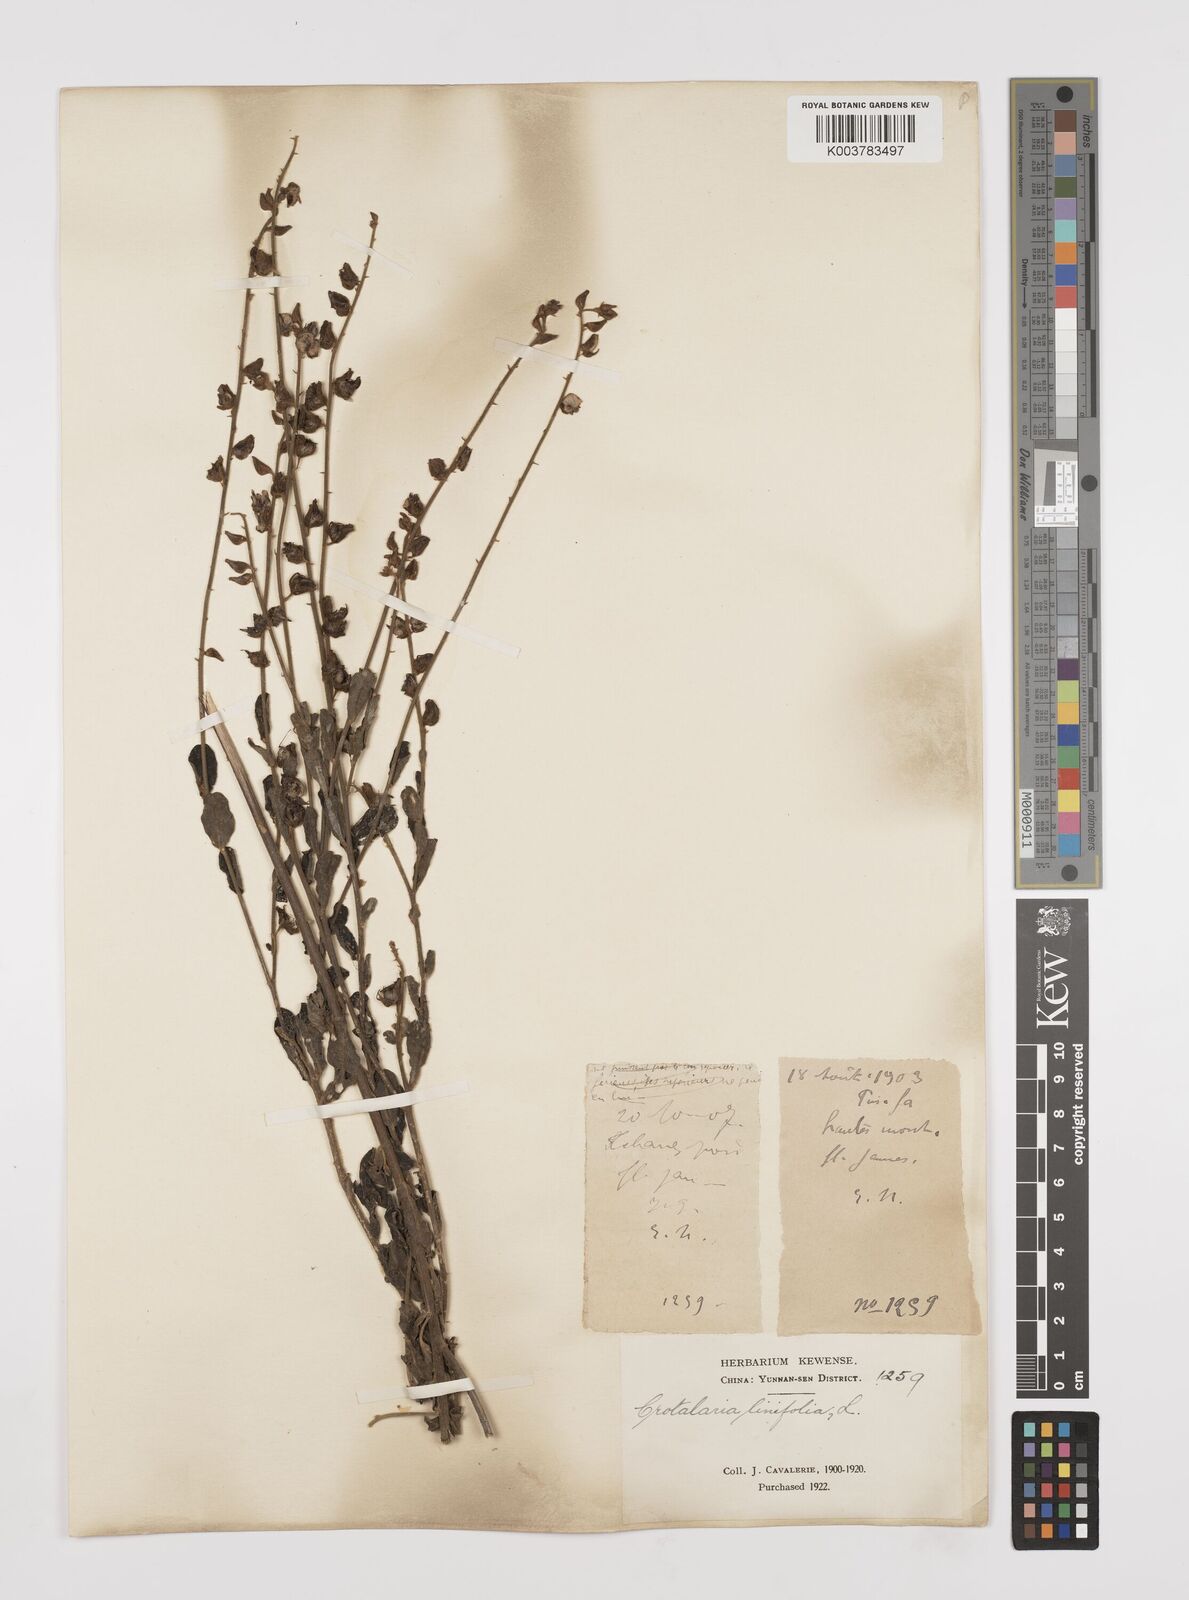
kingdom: Plantae
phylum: Tracheophyta
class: Magnoliopsida
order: Fabales
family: Fabaceae
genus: Crotalaria
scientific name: Crotalaria linifolia
